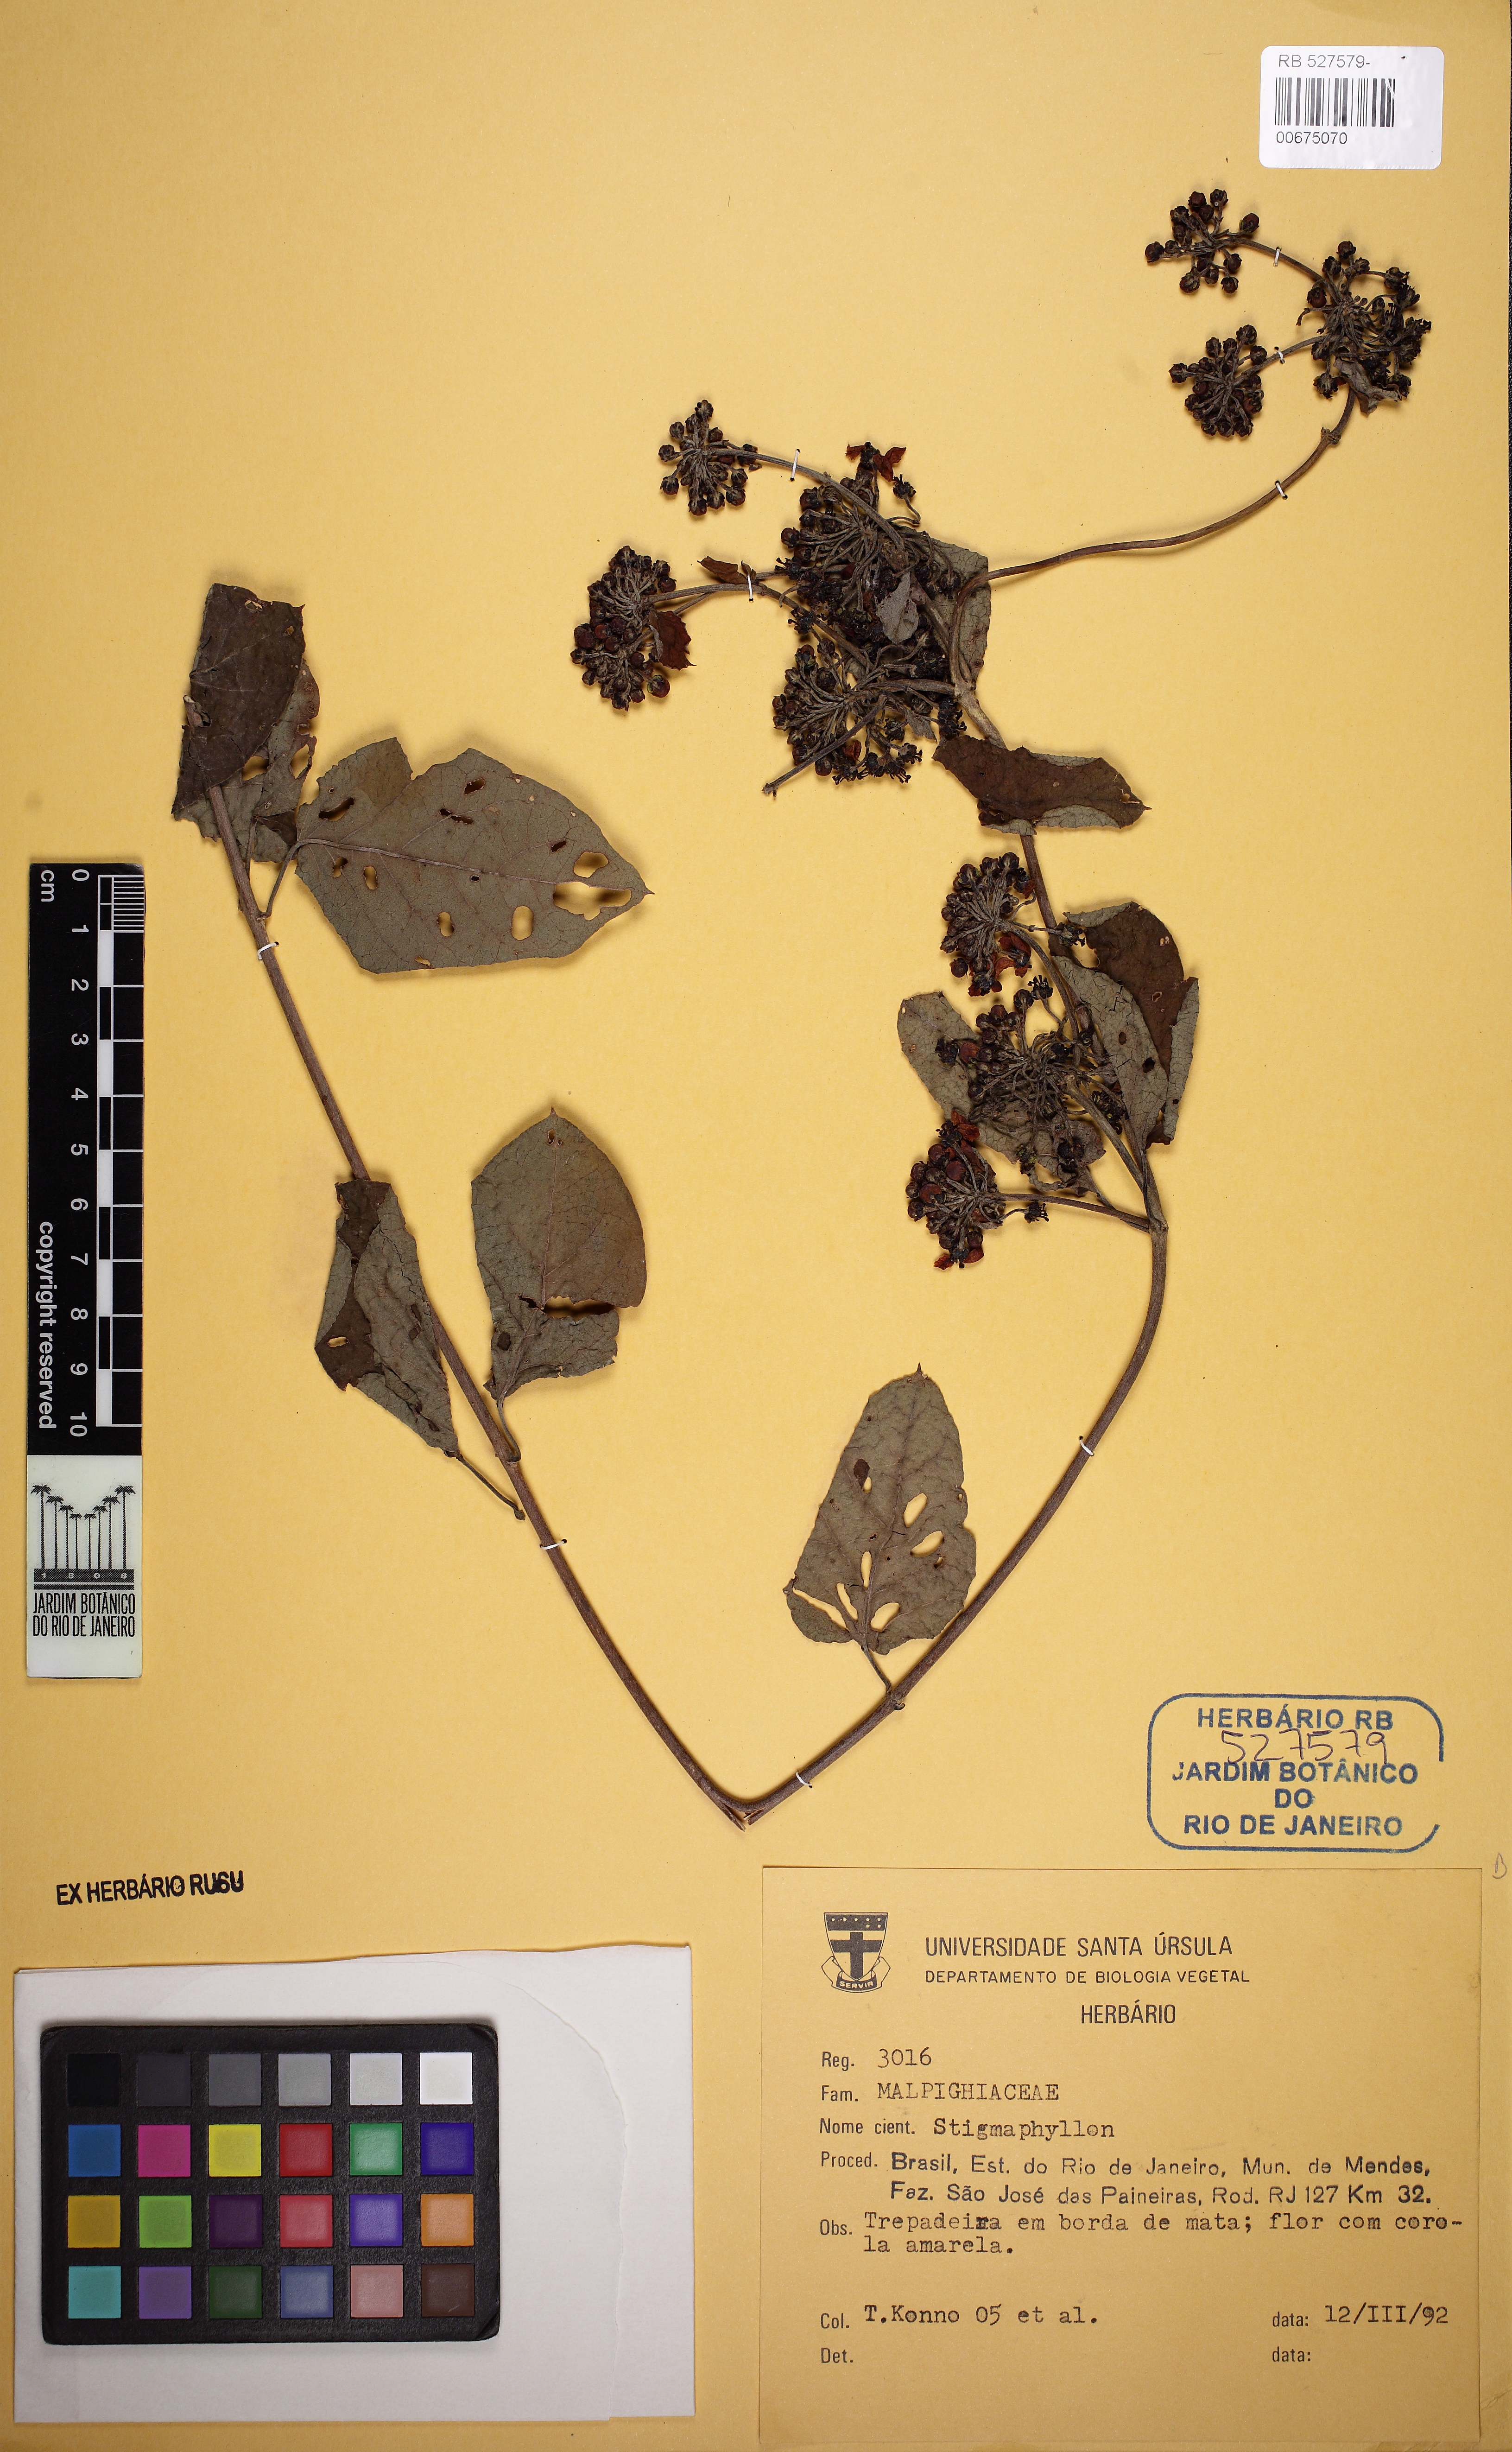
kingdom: Plantae
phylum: Tracheophyta
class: Magnoliopsida
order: Malpighiales
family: Malpighiaceae
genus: Stigmaphyllon
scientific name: Stigmaphyllon
